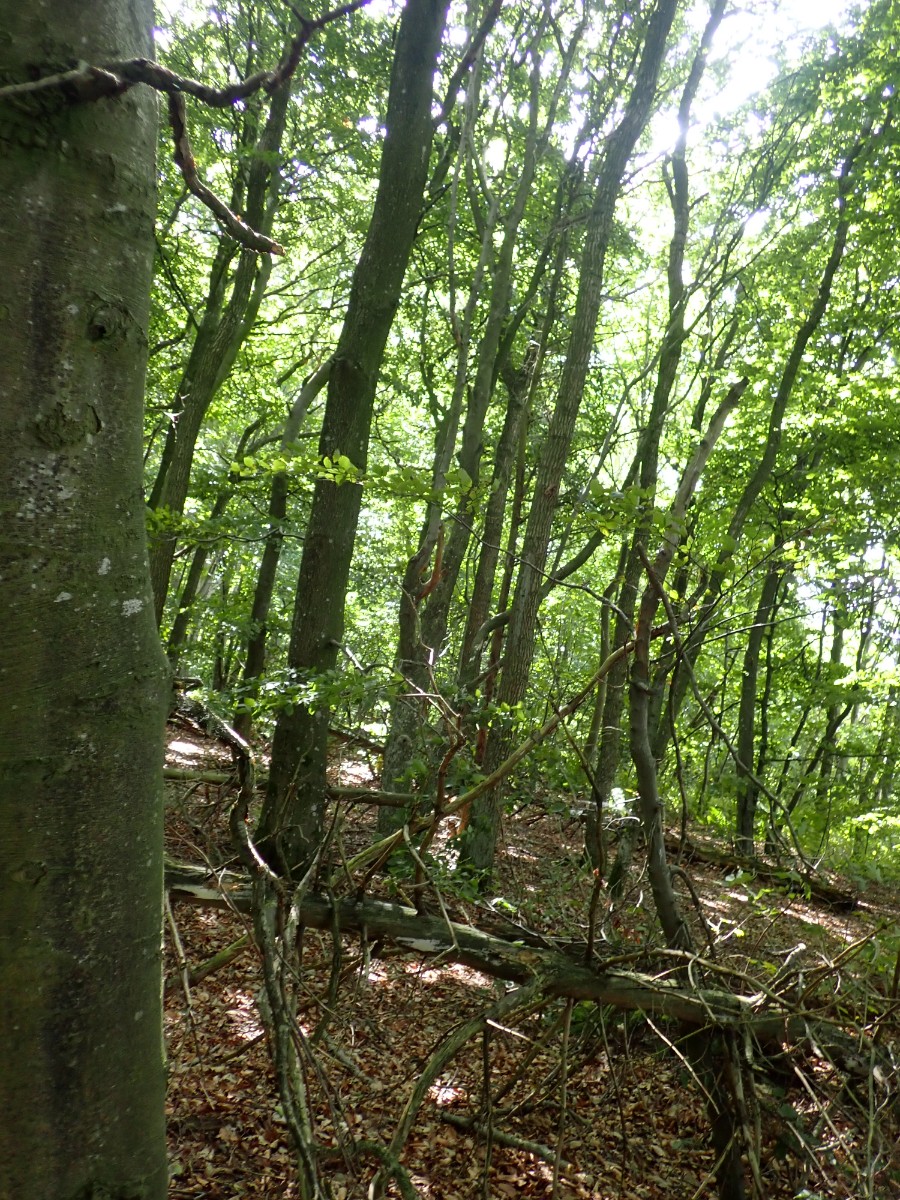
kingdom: Fungi
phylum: Basidiomycota
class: Agaricomycetes
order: Russulales
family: Russulaceae
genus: Russula
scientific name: Russula amoenolens
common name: skarp kam-skørhat
